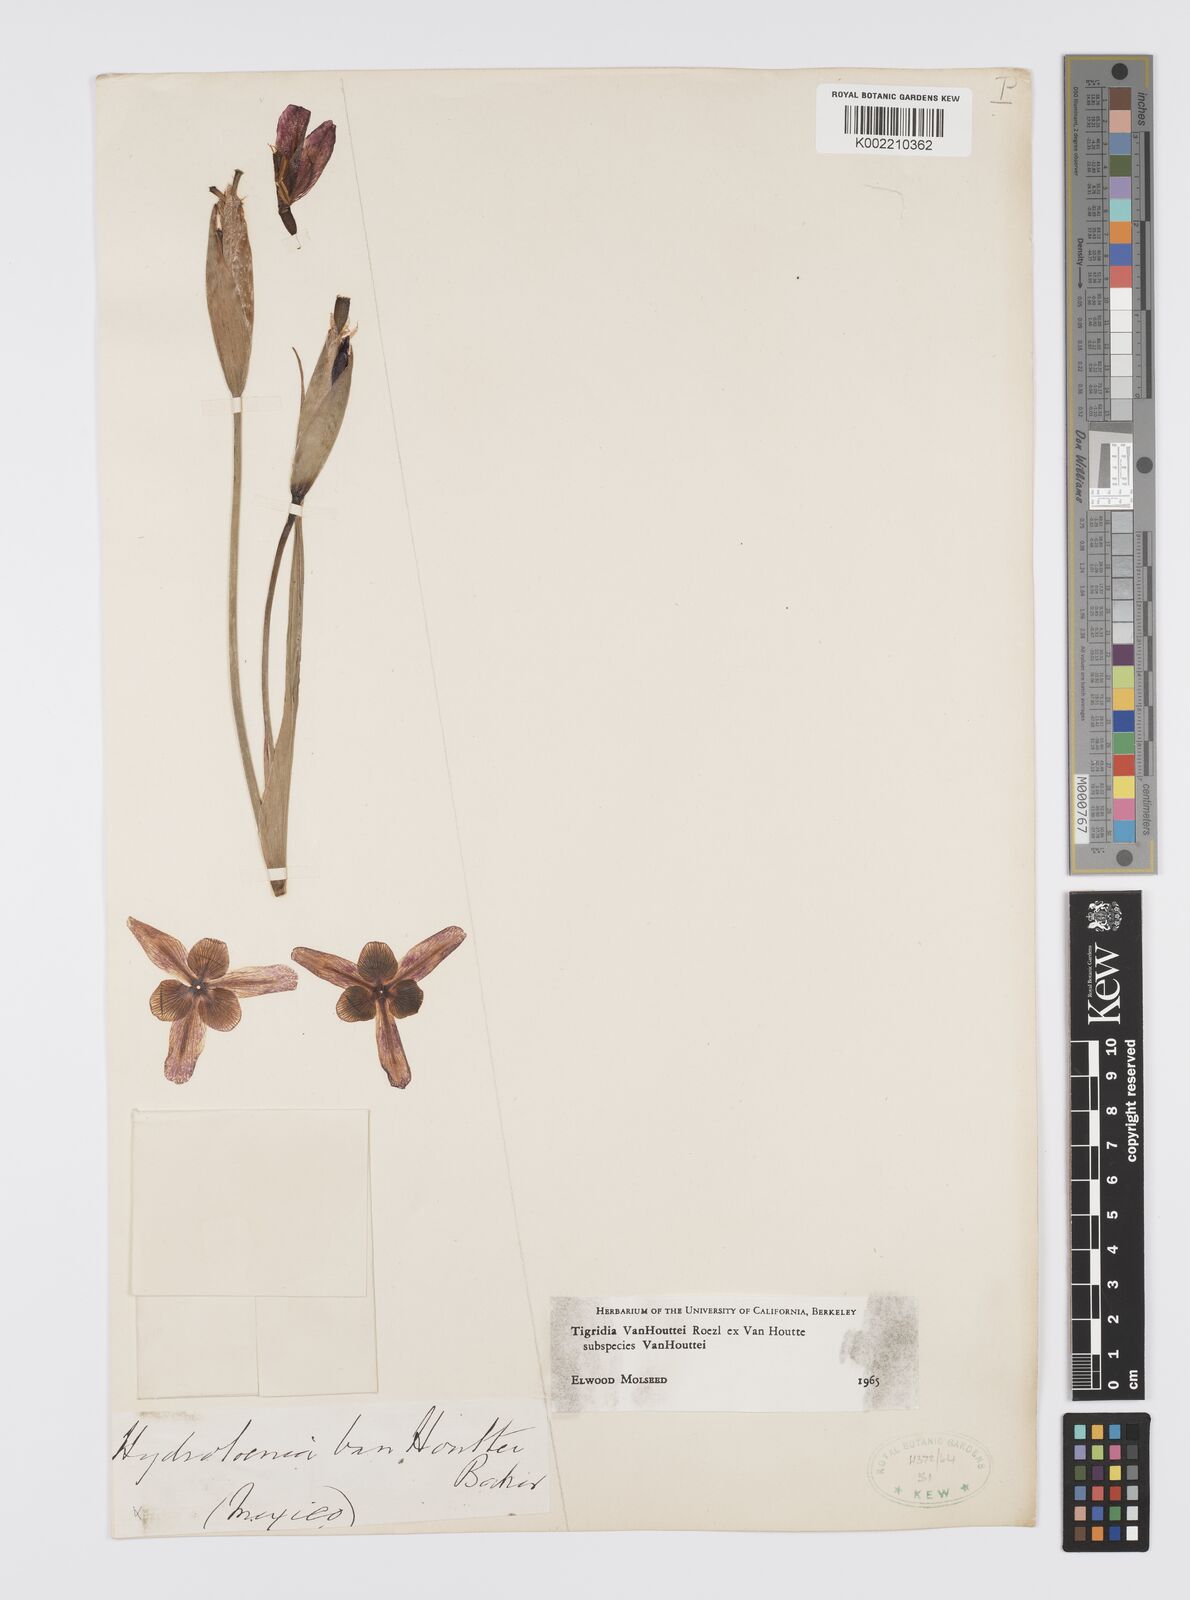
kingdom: Plantae
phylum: Tracheophyta
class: Liliopsida
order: Asparagales
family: Iridaceae
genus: Tigridia
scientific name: Tigridia vanhouttei
